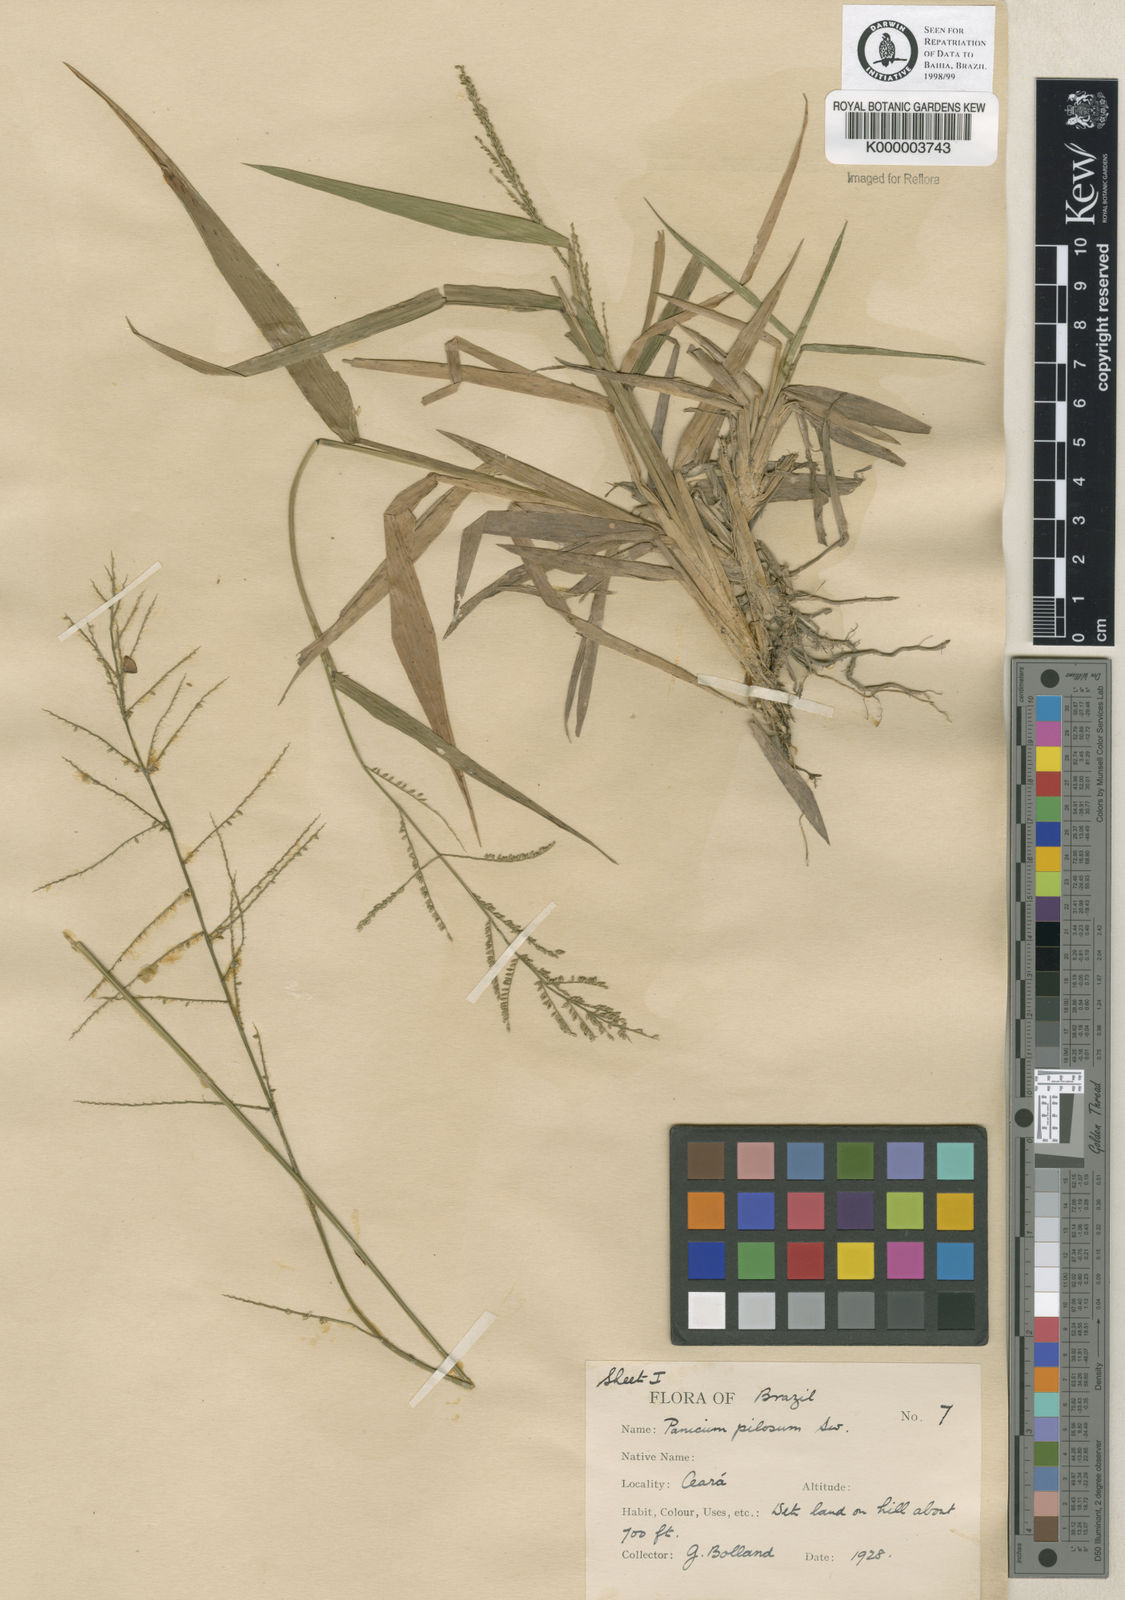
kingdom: Plantae
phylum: Tracheophyta
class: Liliopsida
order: Poales
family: Poaceae
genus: Rugoloa
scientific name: Rugoloa pilosa
